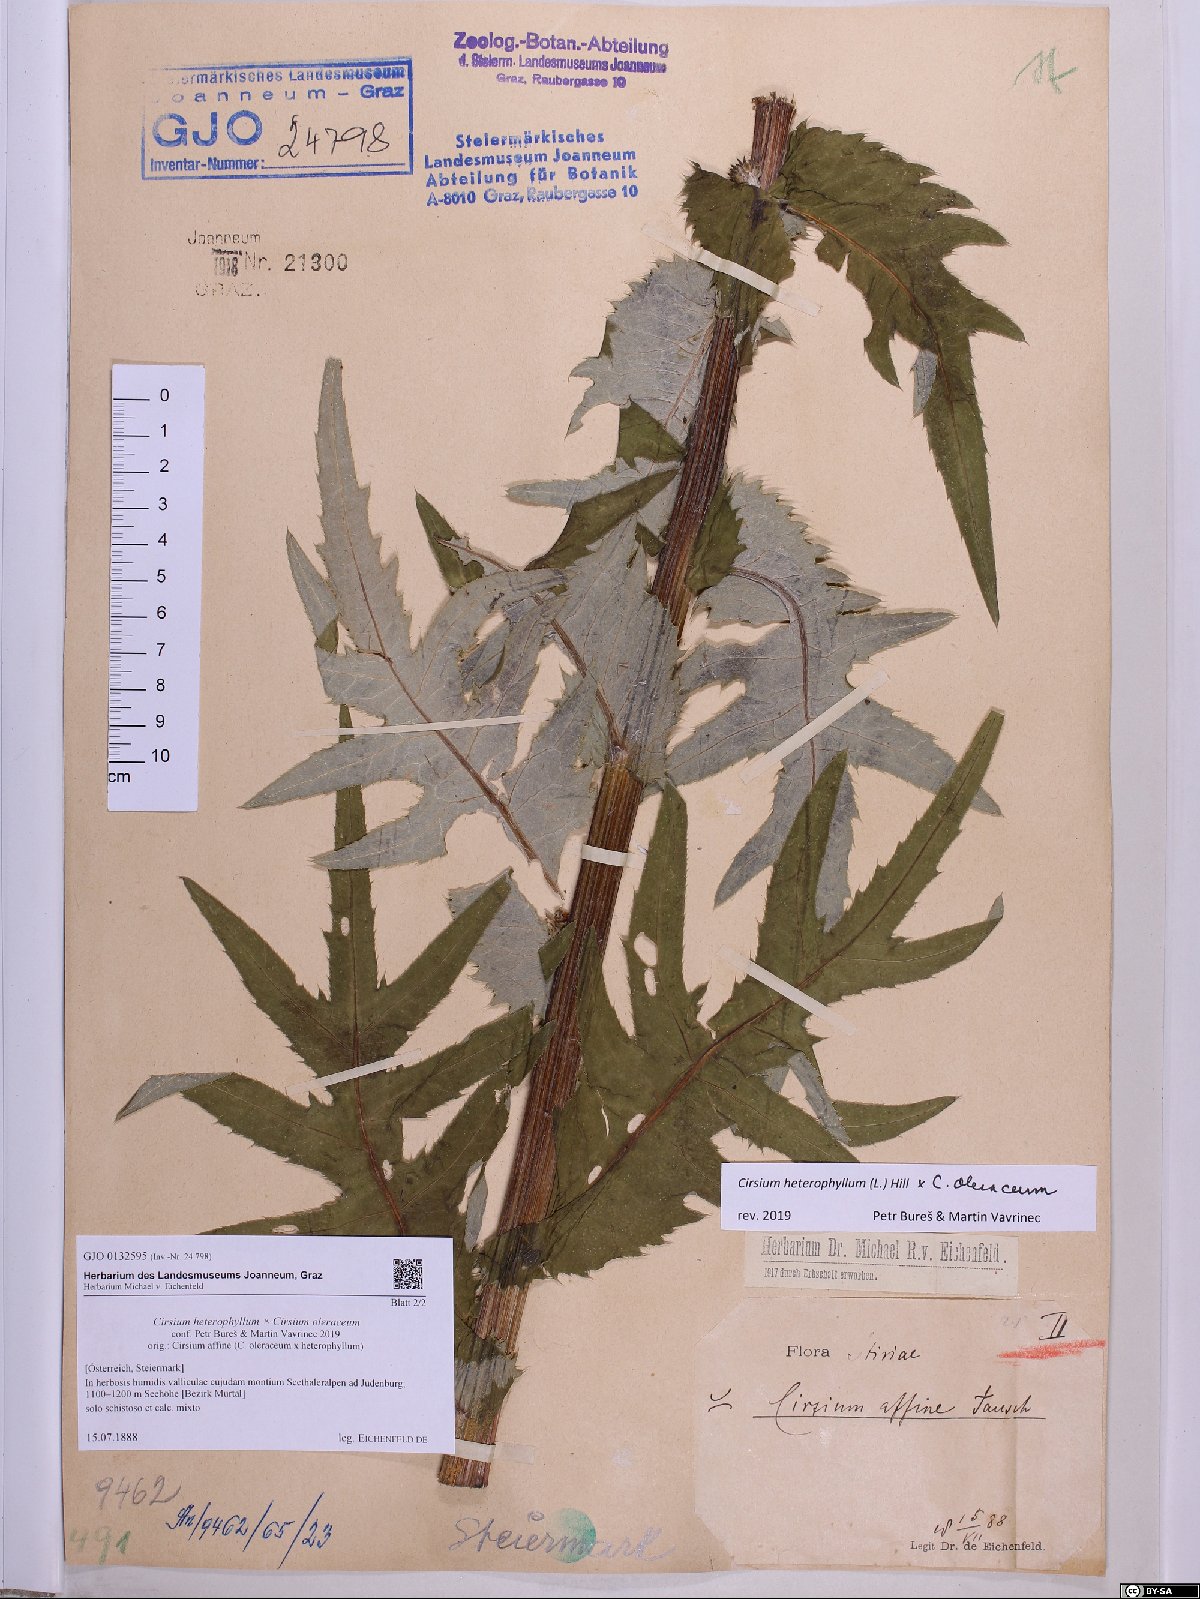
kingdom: Plantae
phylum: Tracheophyta
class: Magnoliopsida
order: Asterales
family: Asteraceae
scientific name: Asteraceae
